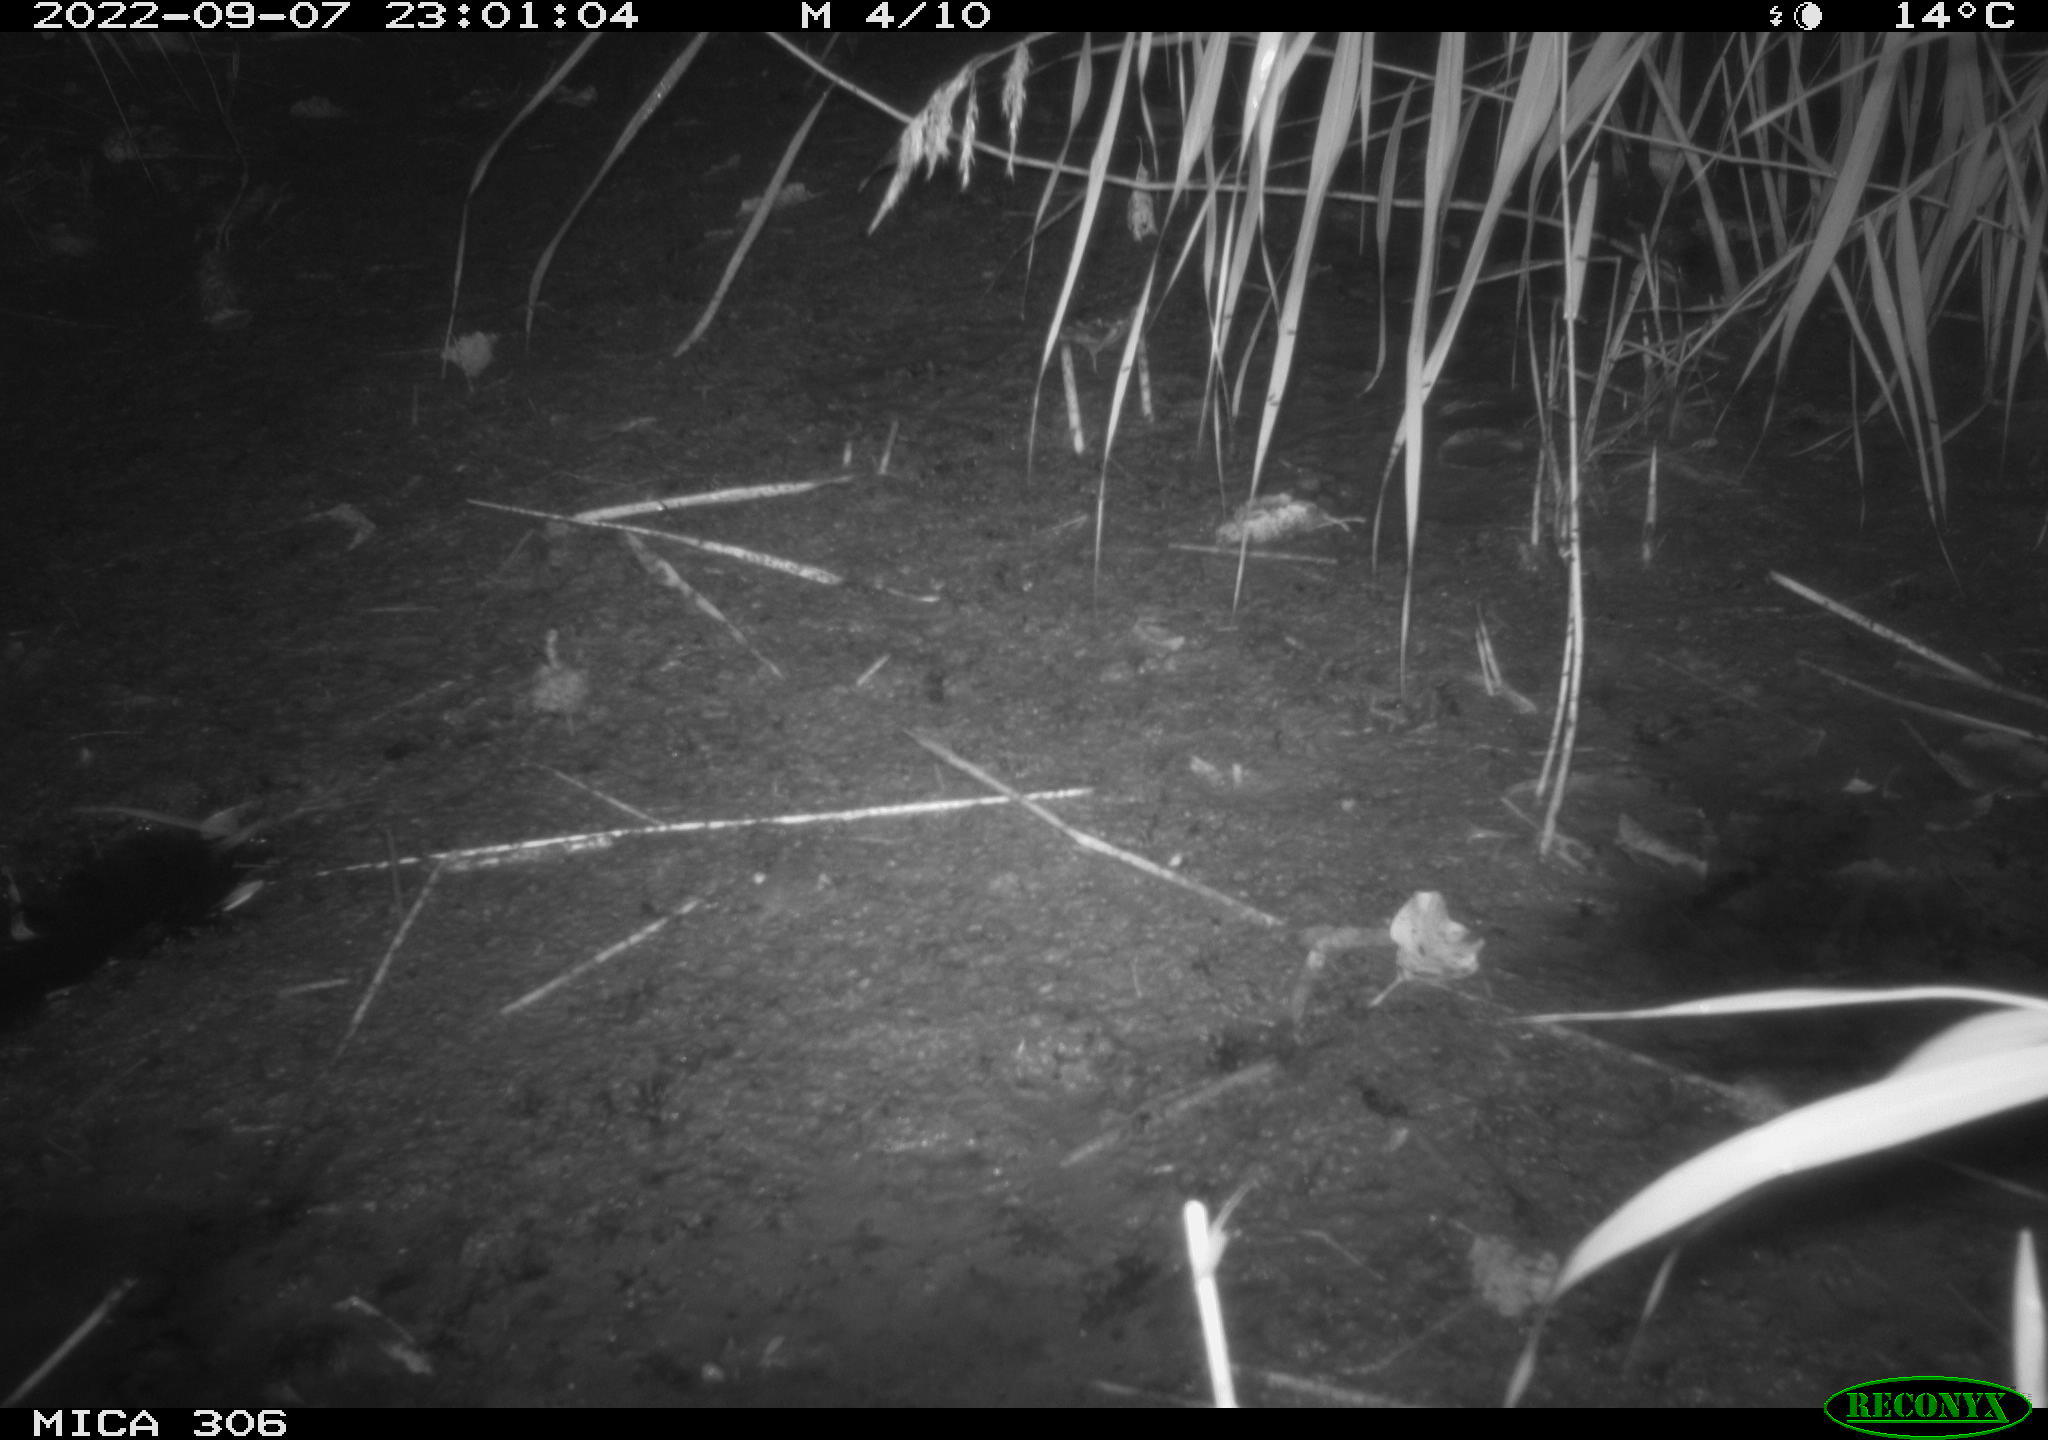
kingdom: Animalia
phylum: Chordata
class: Mammalia
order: Rodentia
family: Muridae
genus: Rattus
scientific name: Rattus norvegicus
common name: Brown rat
